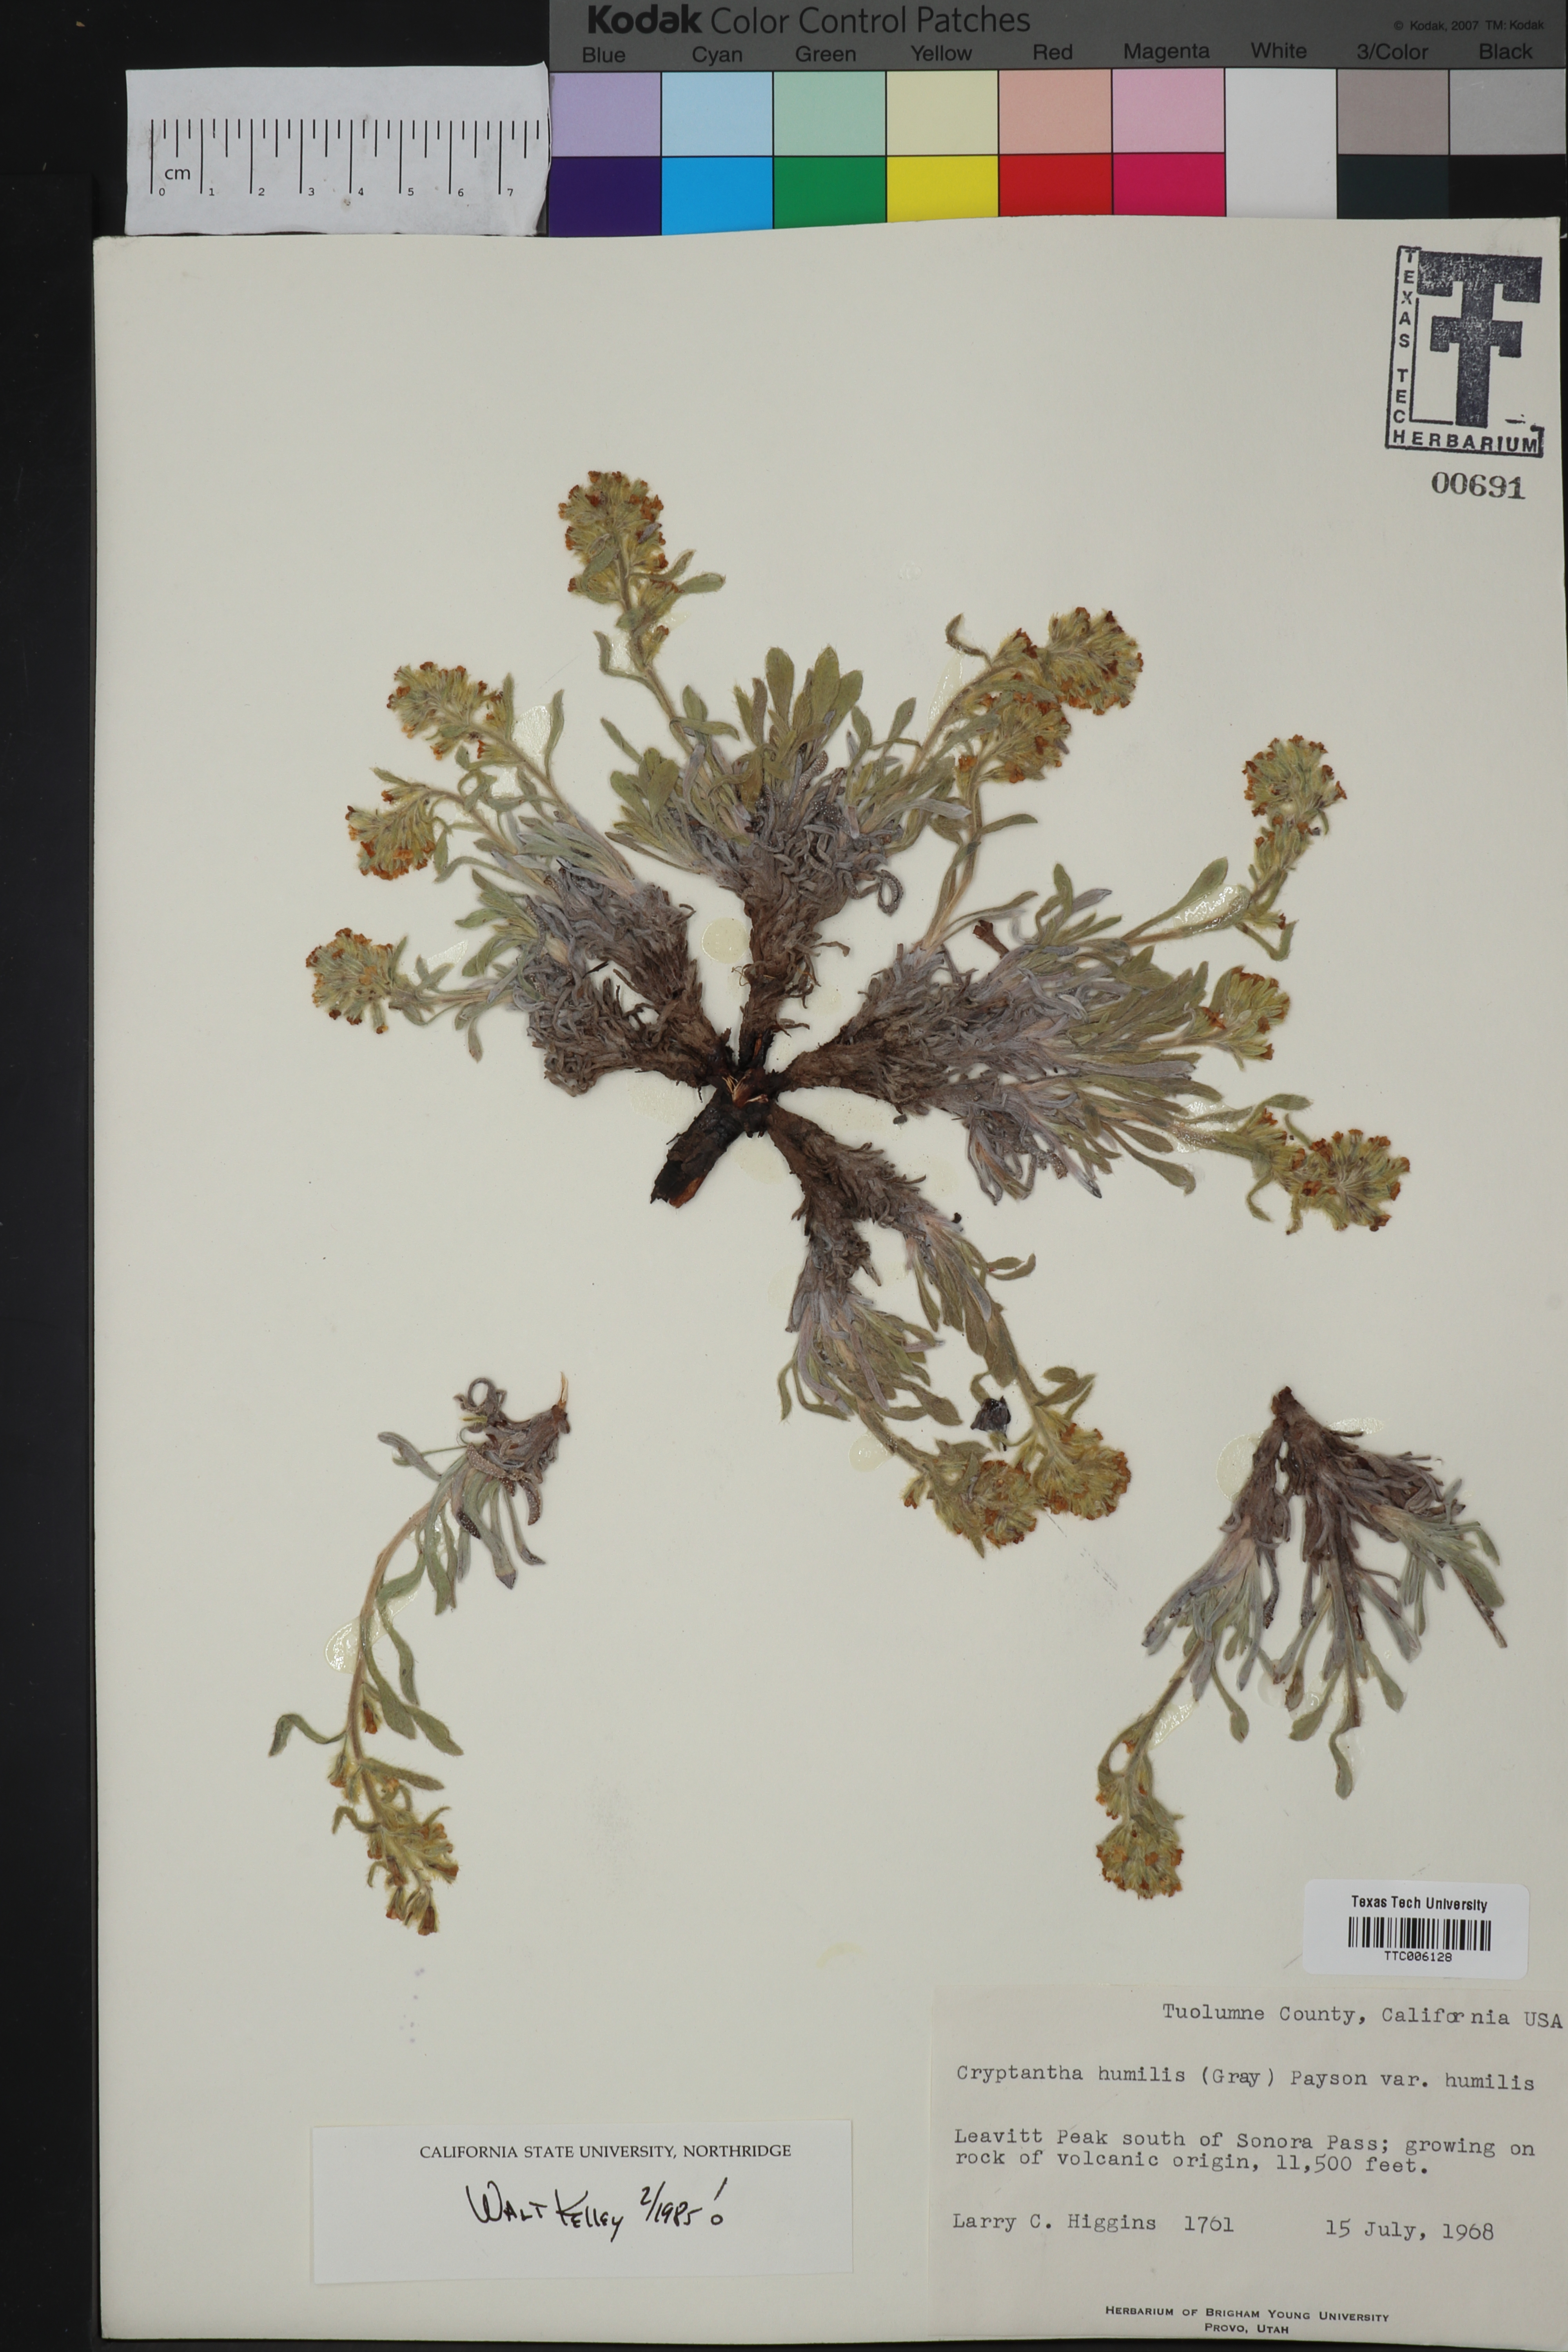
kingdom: Plantae
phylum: Tracheophyta
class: Magnoliopsida
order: Boraginales
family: Boraginaceae
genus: Oreocarya
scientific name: Oreocarya humilis
